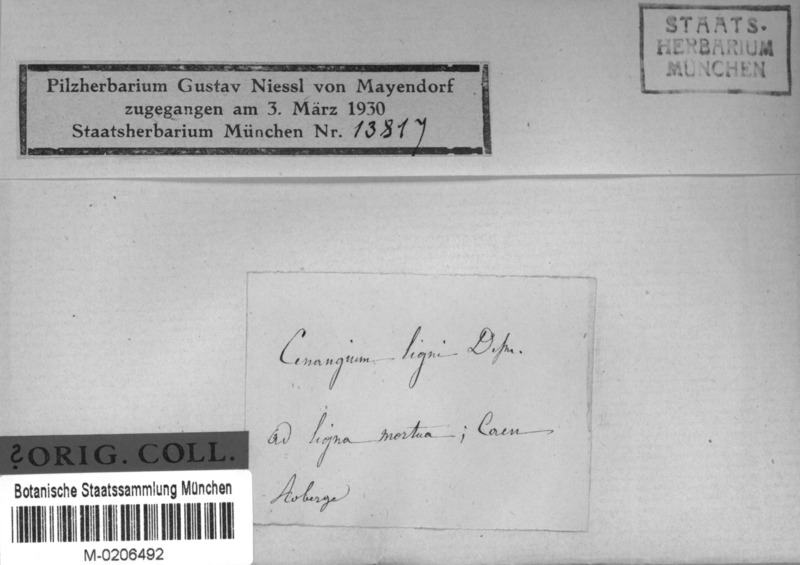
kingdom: Fungi
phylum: Ascomycota
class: Leotiomycetes
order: Helotiales
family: Mollisiaceae
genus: Mollisia
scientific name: Mollisia ligni
